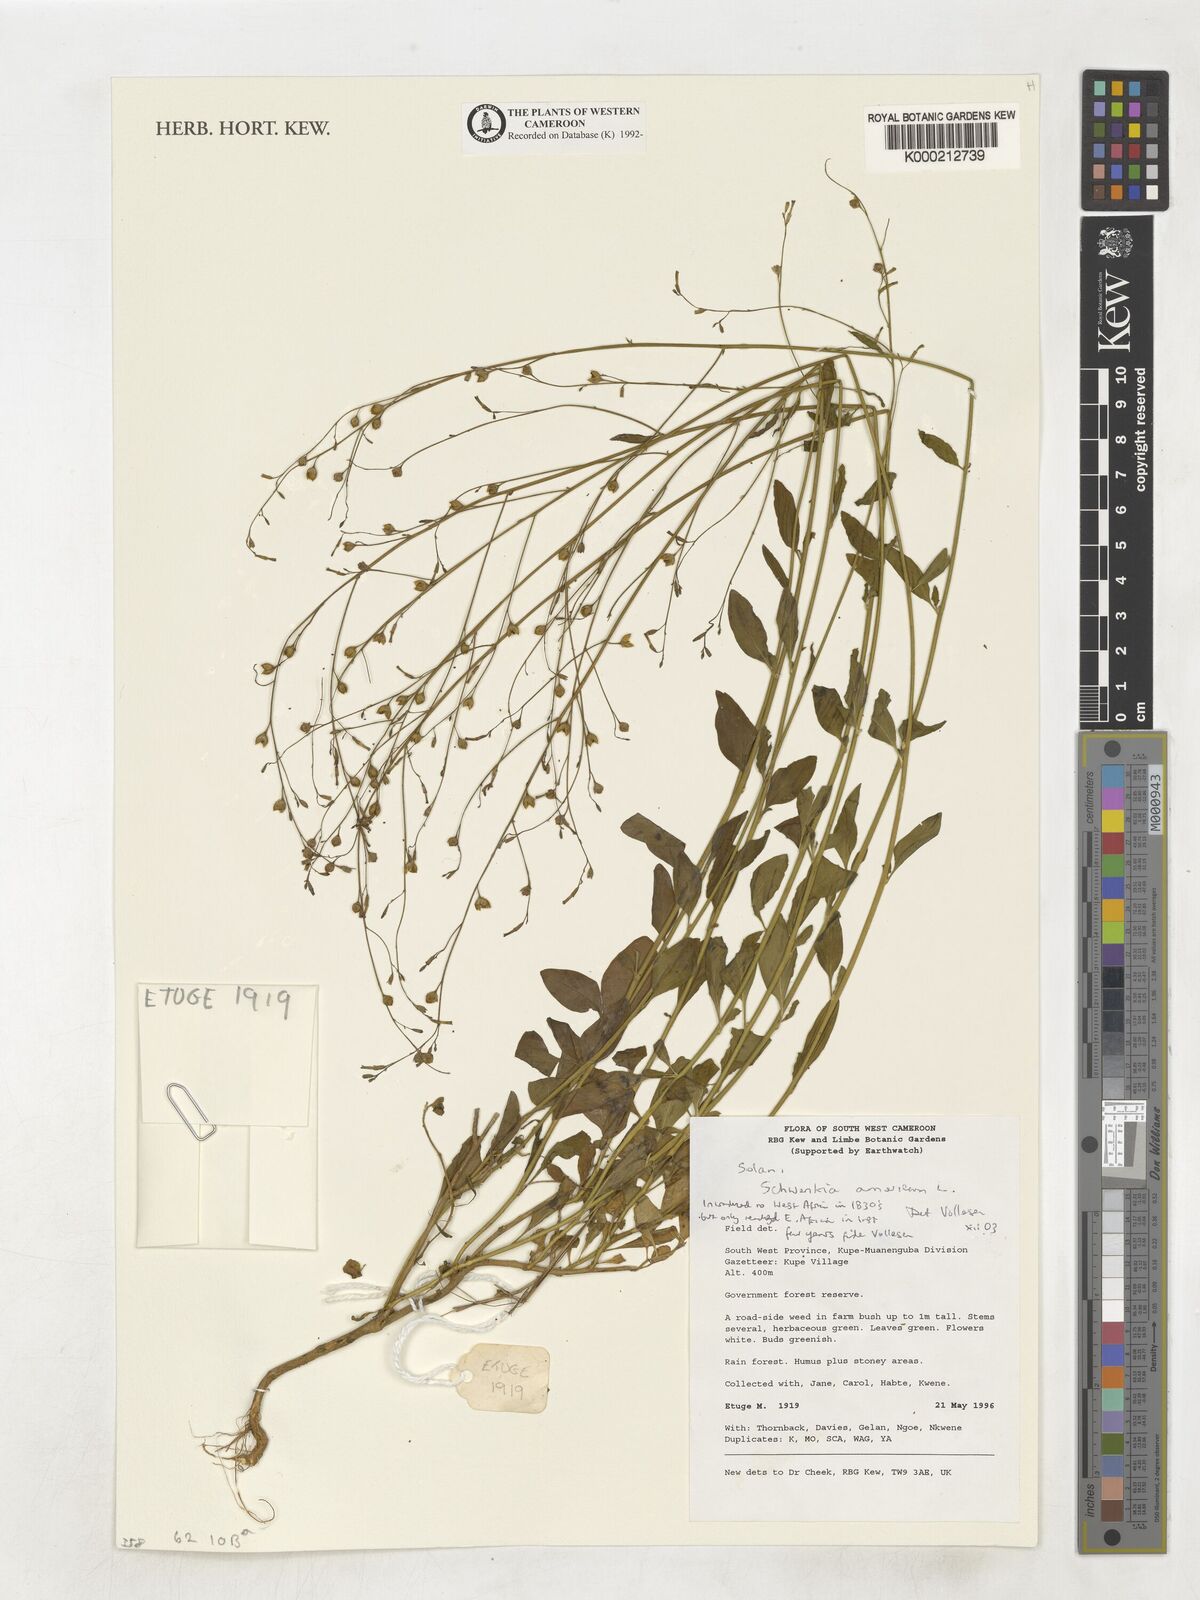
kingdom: Plantae
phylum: Tracheophyta
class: Magnoliopsida
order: Solanales
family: Solanaceae
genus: Schwenckia
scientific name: Schwenckia americana
